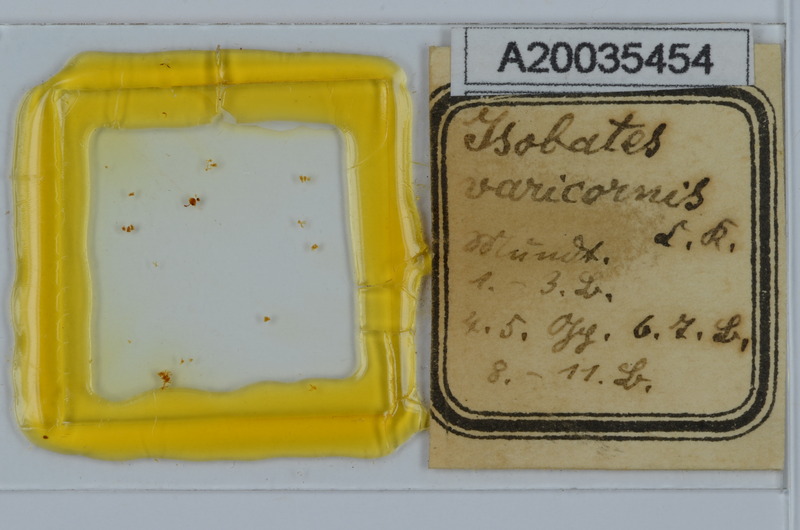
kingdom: Animalia
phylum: Arthropoda
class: Diplopoda
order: Julida
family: Nemasomatidae
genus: Isobates
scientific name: Isobates varicornis
